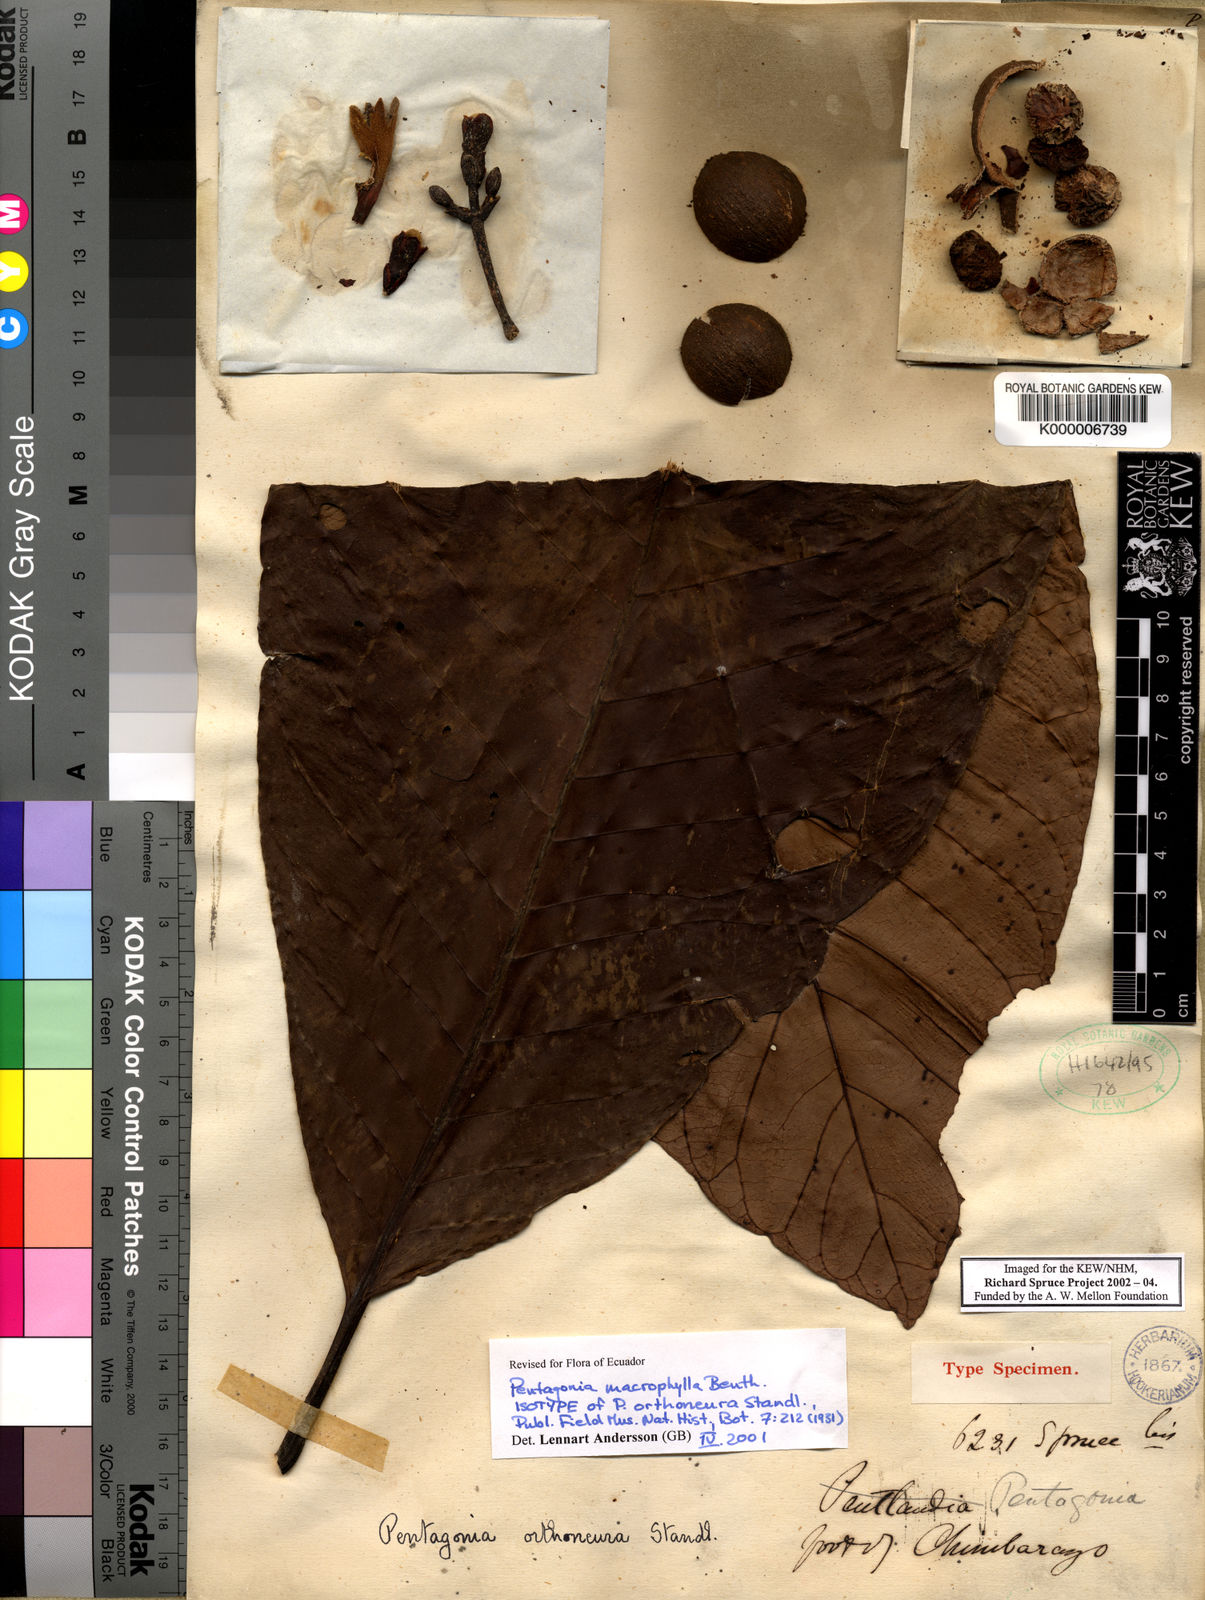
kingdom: Plantae
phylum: Tracheophyta
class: Magnoliopsida
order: Gentianales
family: Rubiaceae
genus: Pentagonia
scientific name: Pentagonia macrophylla
